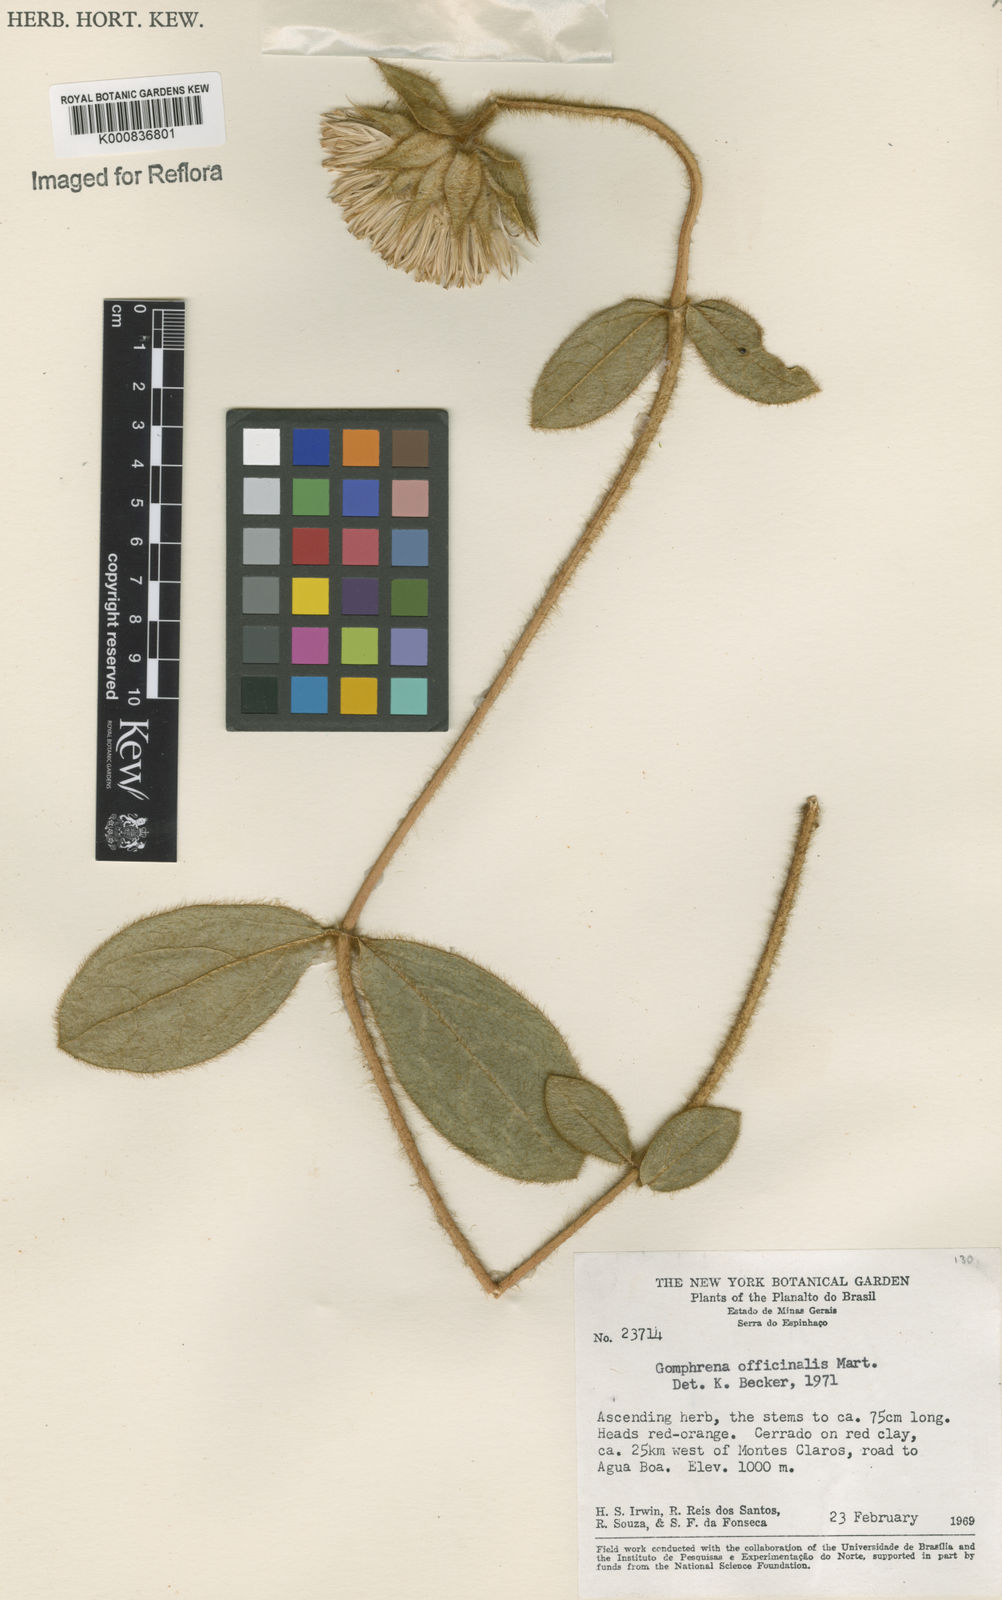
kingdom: Plantae
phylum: Tracheophyta
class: Magnoliopsida
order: Caryophyllales
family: Amaranthaceae
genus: Gomphrena
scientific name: Gomphrena arborescens
